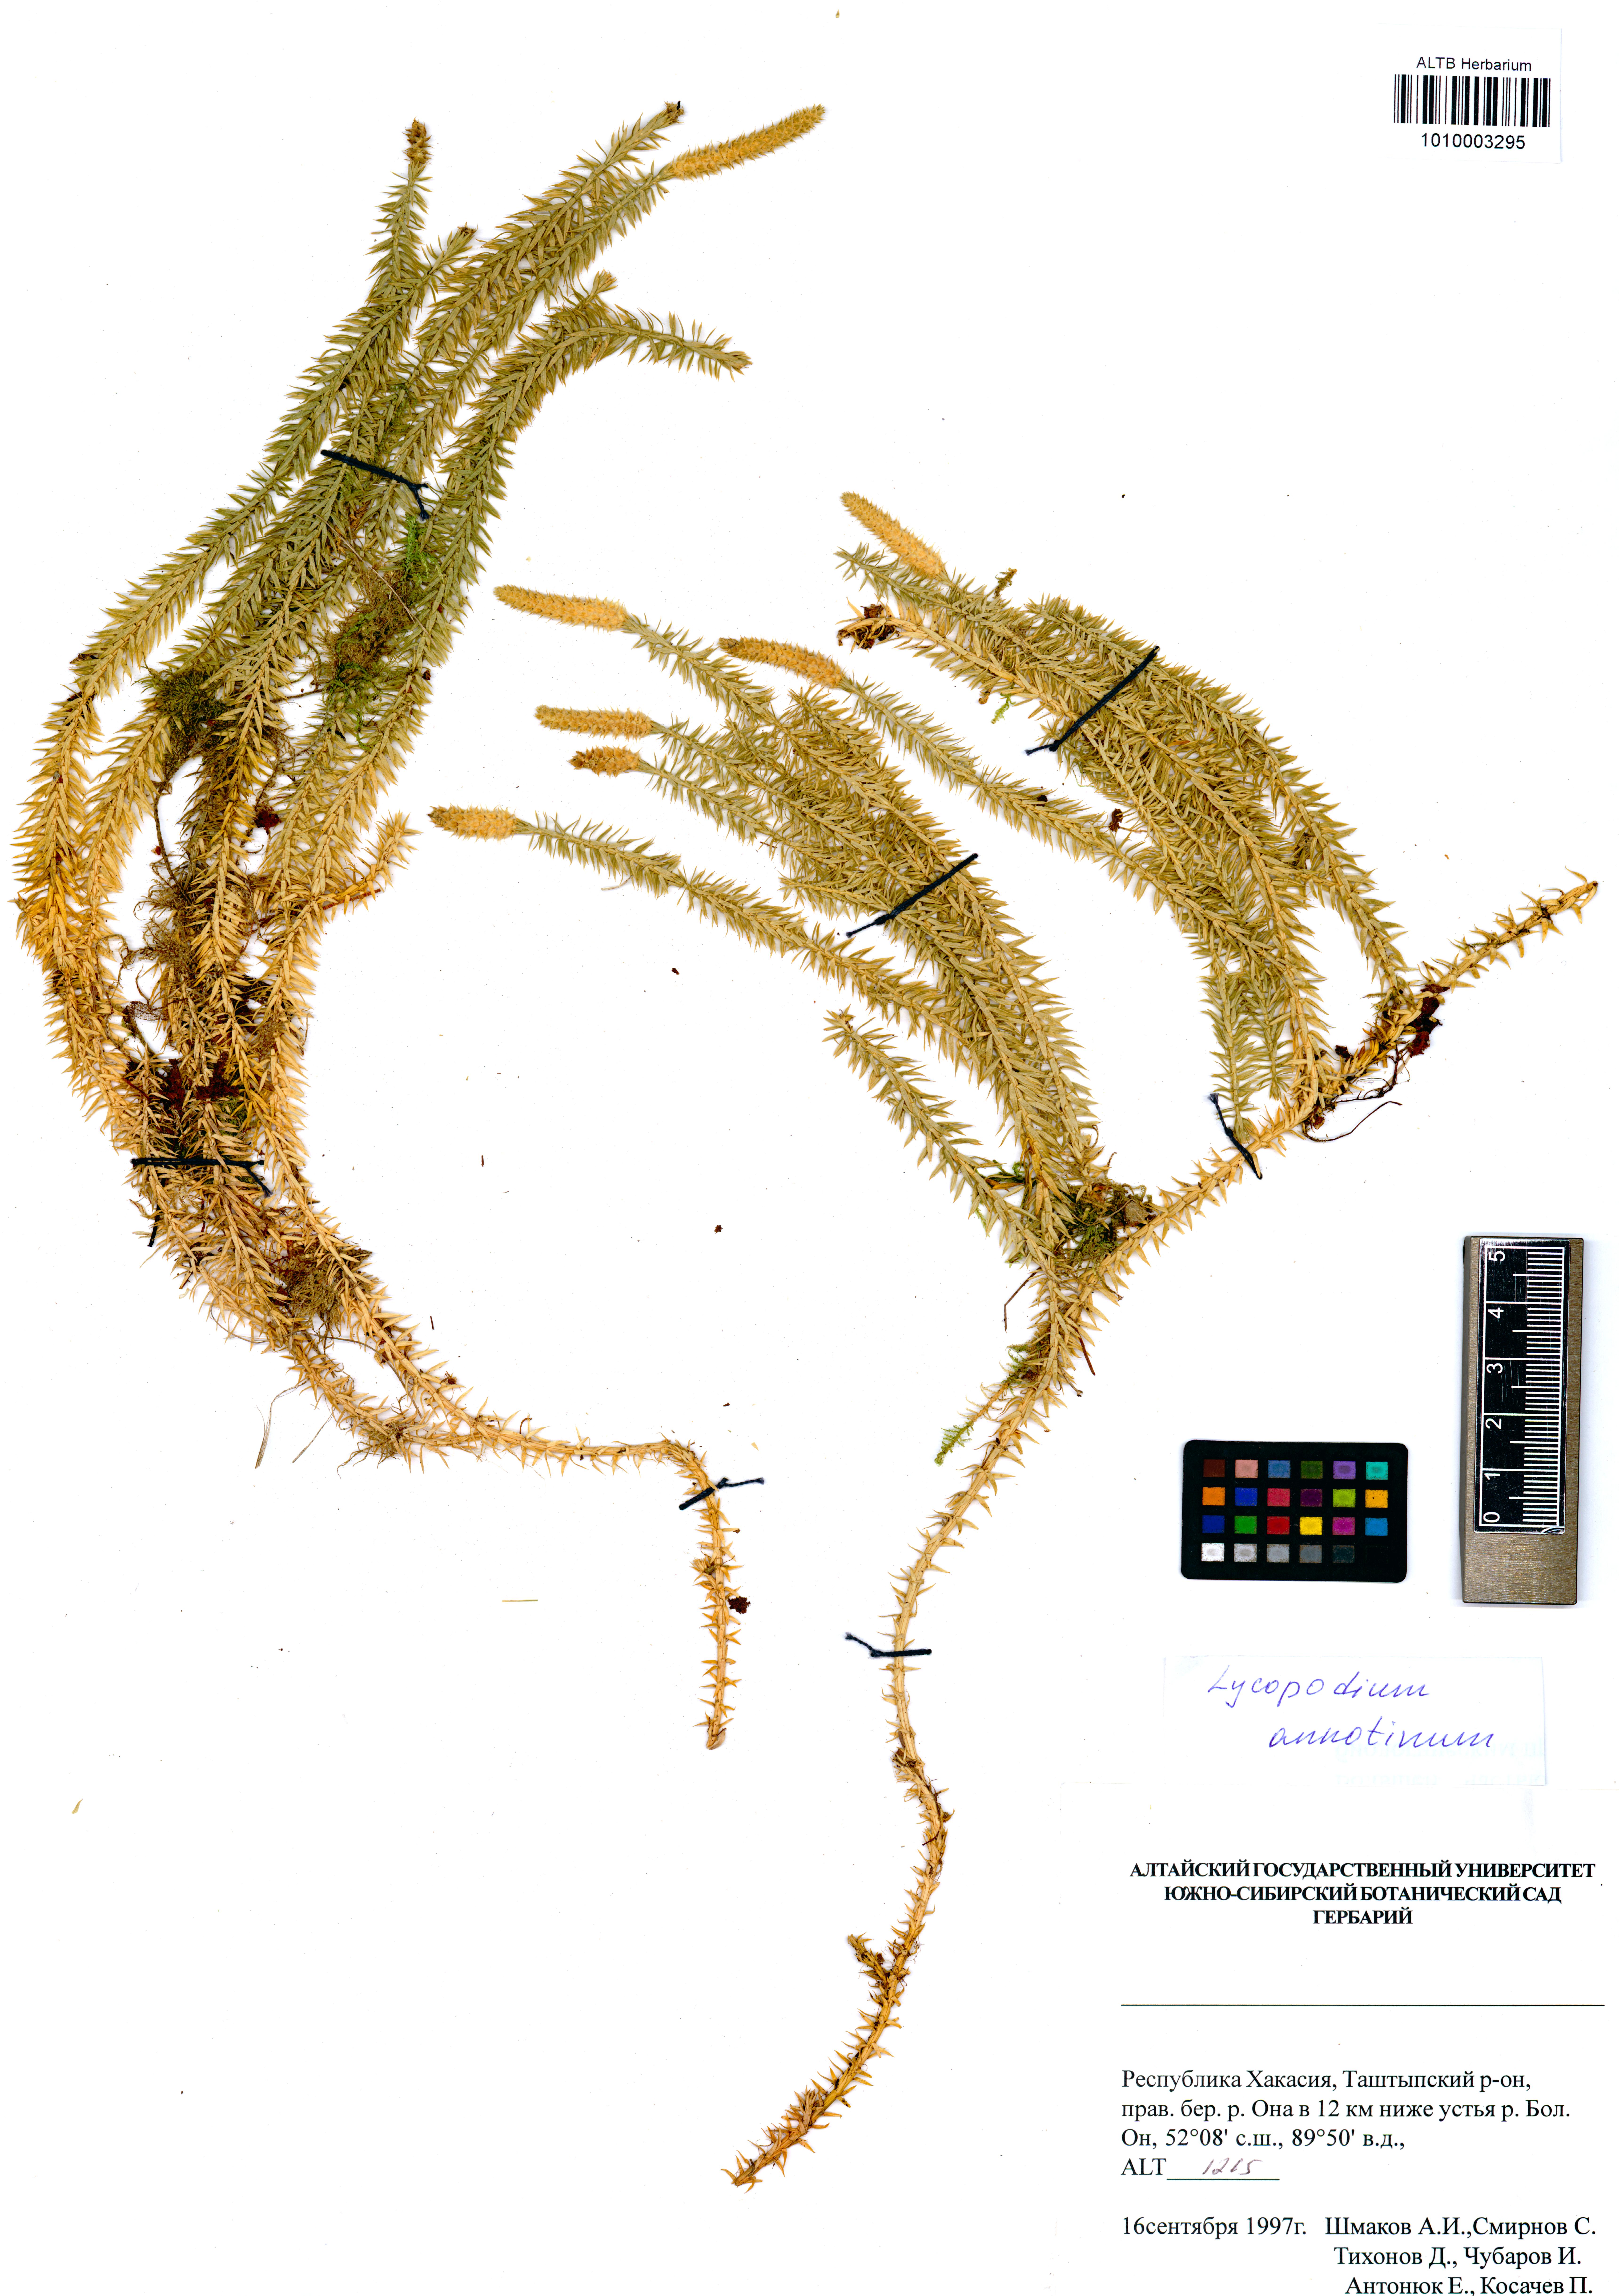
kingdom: Plantae
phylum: Tracheophyta
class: Lycopodiopsida
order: Lycopodiales
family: Lycopodiaceae
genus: Spinulum
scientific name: Spinulum annotinum
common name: Interrupted club-moss
